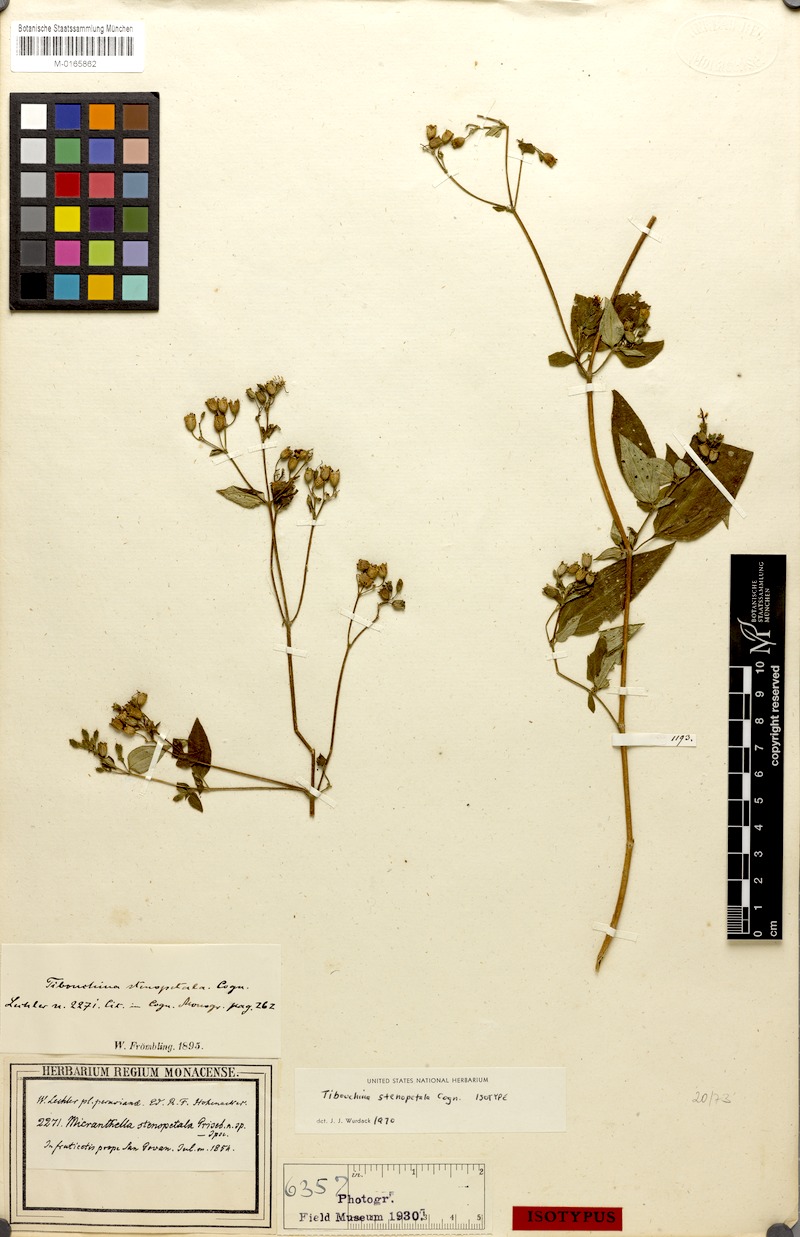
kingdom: Plantae
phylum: Tracheophyta
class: Magnoliopsida
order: Myrtales
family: Melastomataceae
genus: Chaetogastra
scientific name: Chaetogastra stenopetala
